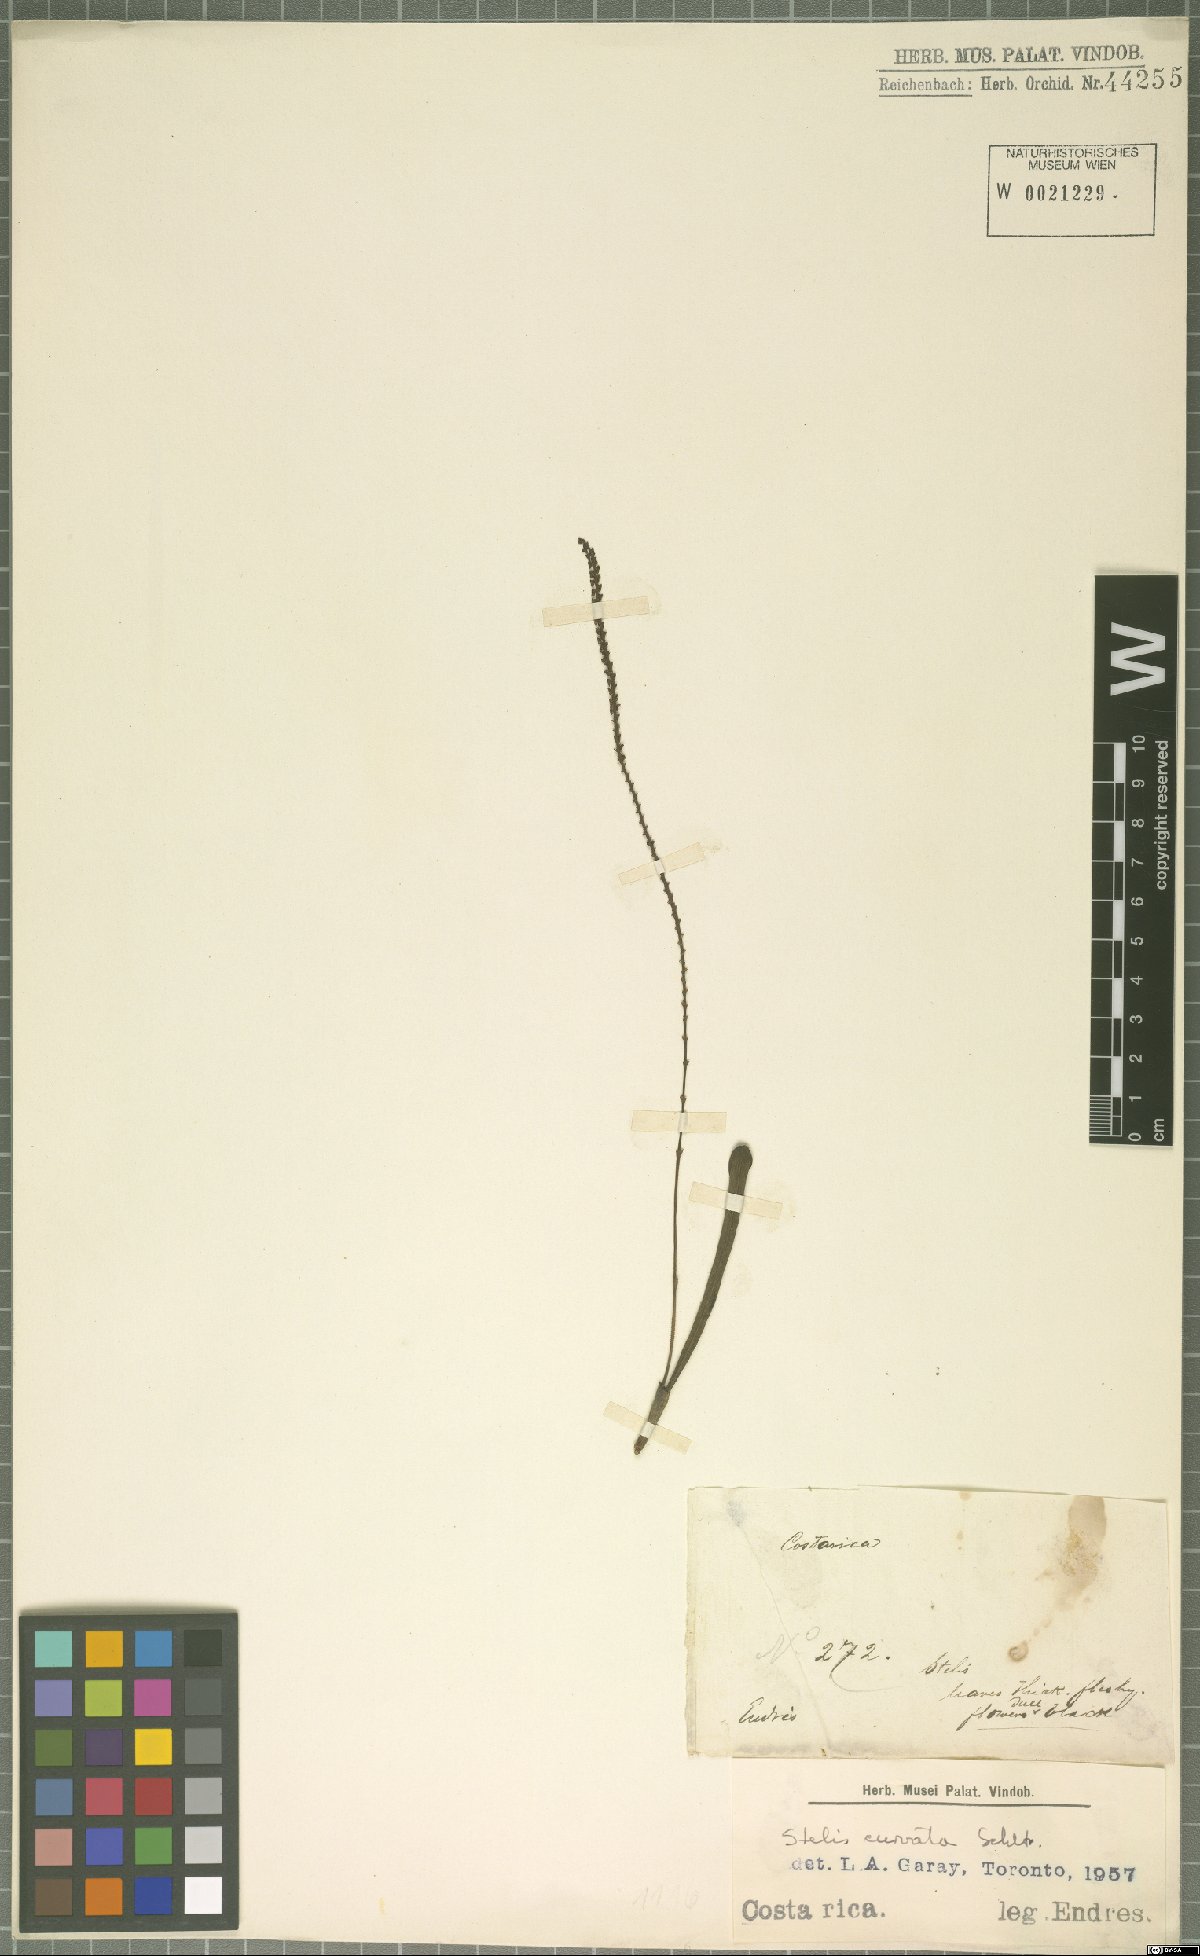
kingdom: Plantae
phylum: Tracheophyta
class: Liliopsida
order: Asparagales
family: Orchidaceae
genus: Stelis
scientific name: Stelis purpurascens
